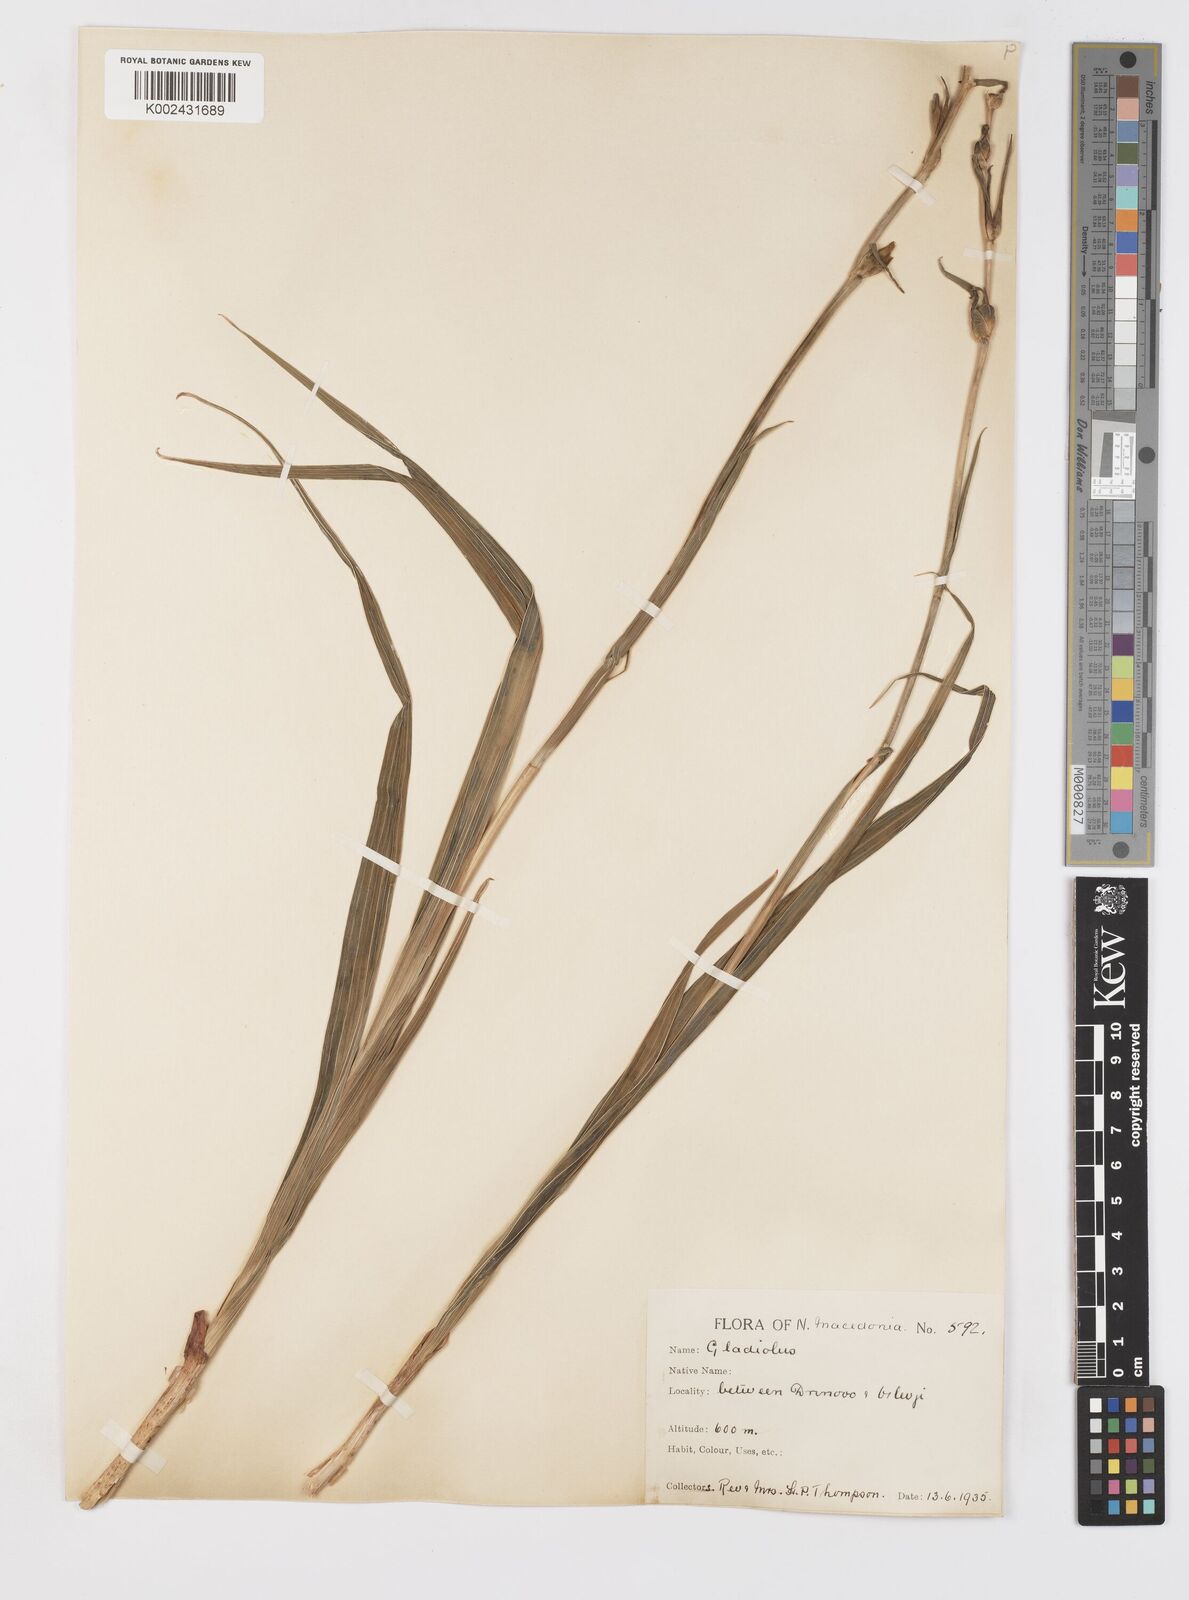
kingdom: Plantae
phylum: Tracheophyta
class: Liliopsida
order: Asparagales
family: Iridaceae
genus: Gladiolus
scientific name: Gladiolus illyricus
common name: Wild gladiolus
